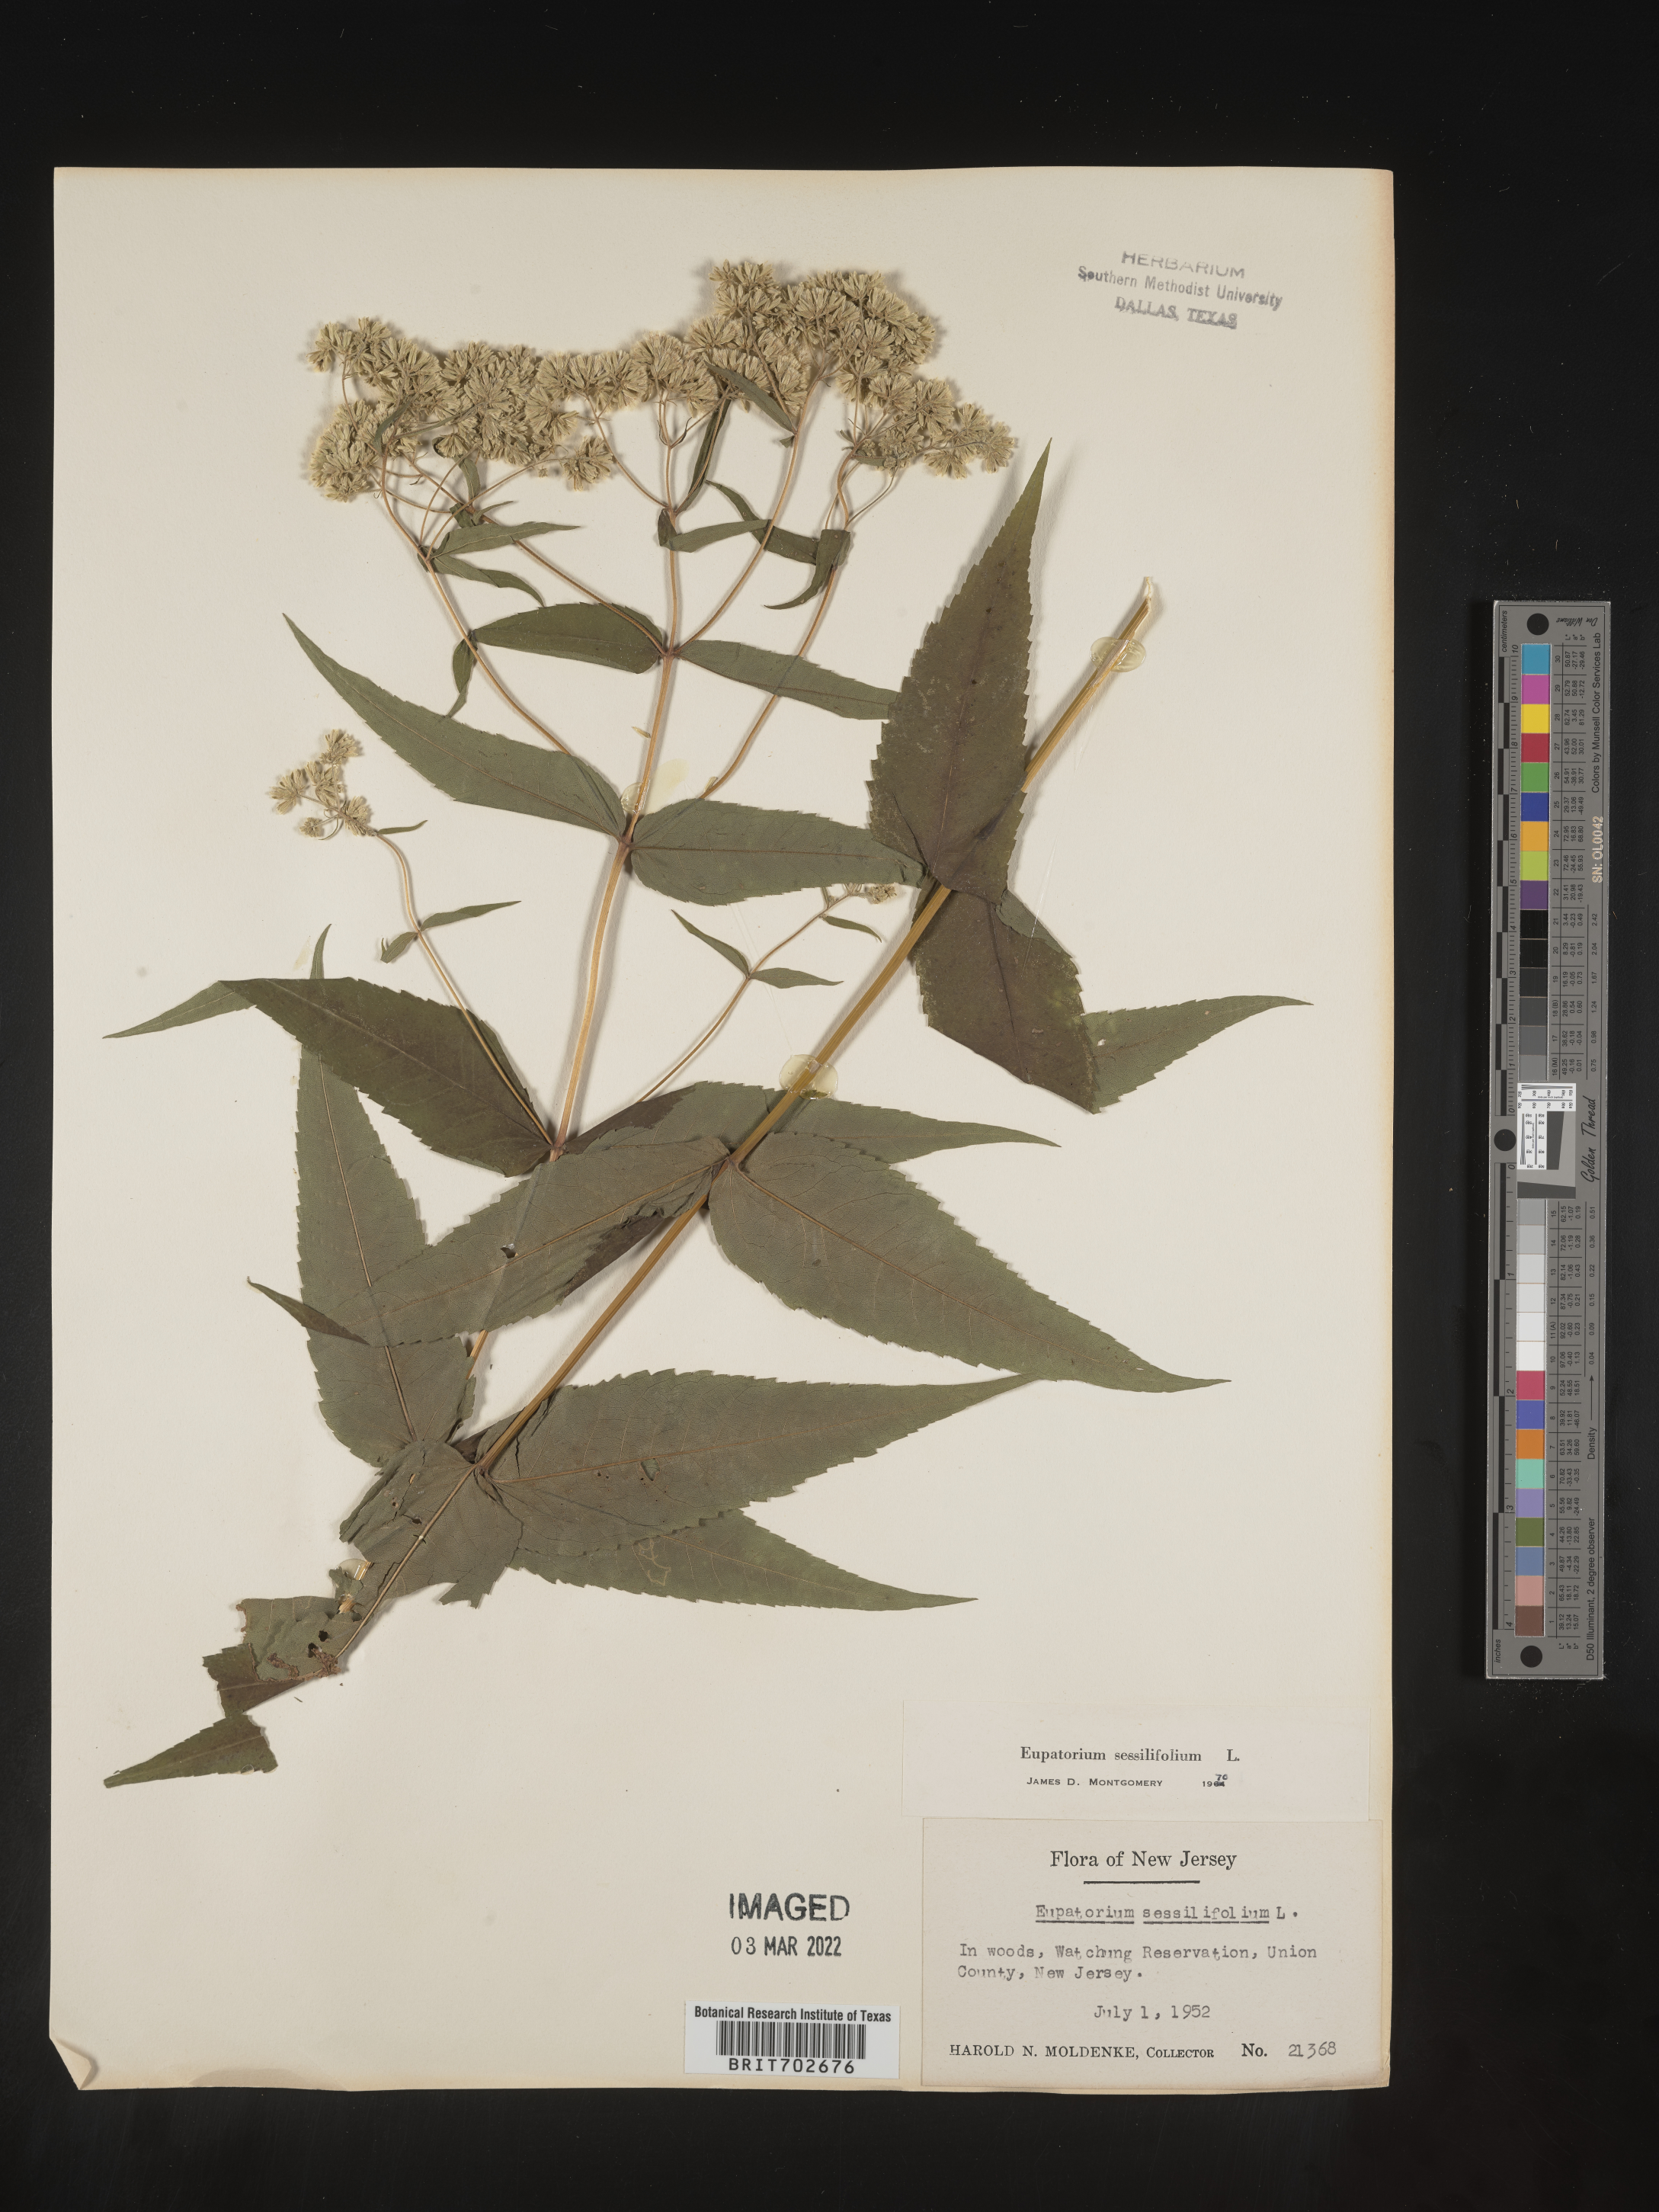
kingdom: Plantae
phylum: Tracheophyta
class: Magnoliopsida
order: Asterales
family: Asteraceae
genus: Eupatorium
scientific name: Eupatorium sessilifolium
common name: Upland boneset
